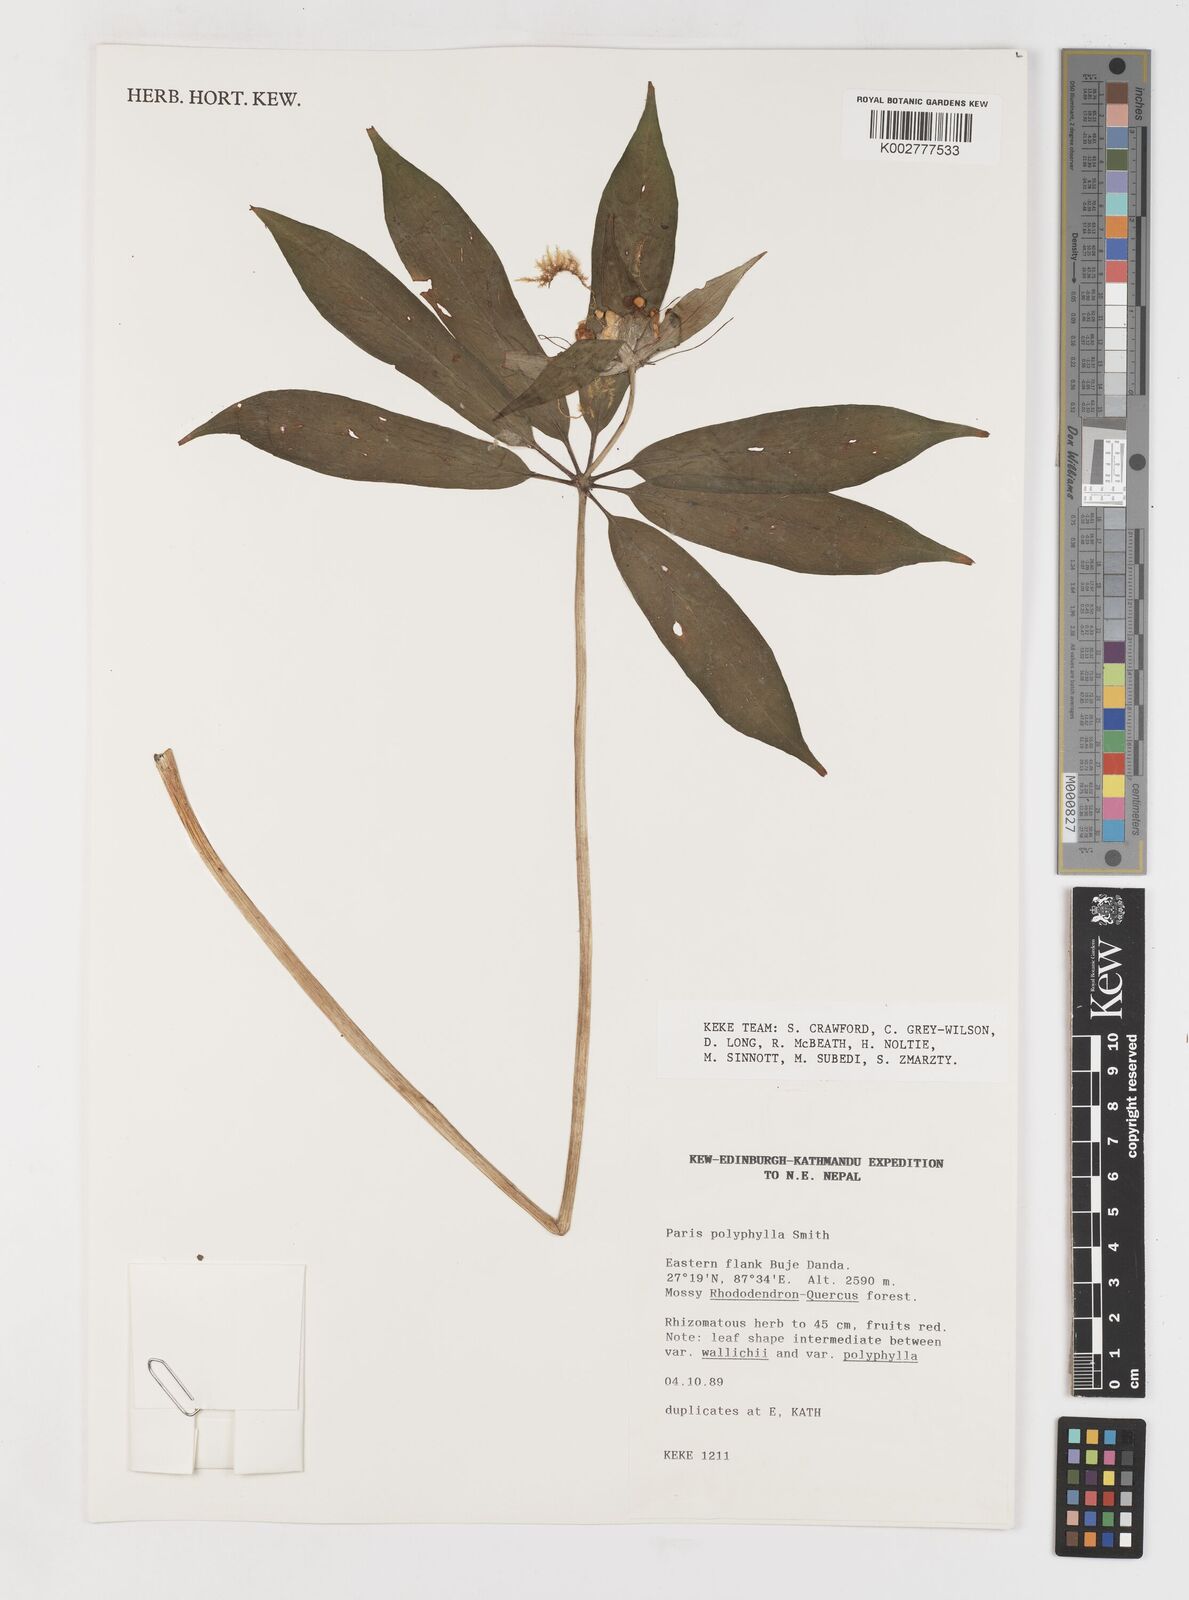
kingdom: Plantae
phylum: Tracheophyta
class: Liliopsida
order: Liliales
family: Melanthiaceae
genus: Paris
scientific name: Paris polyphylla
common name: Love apple
